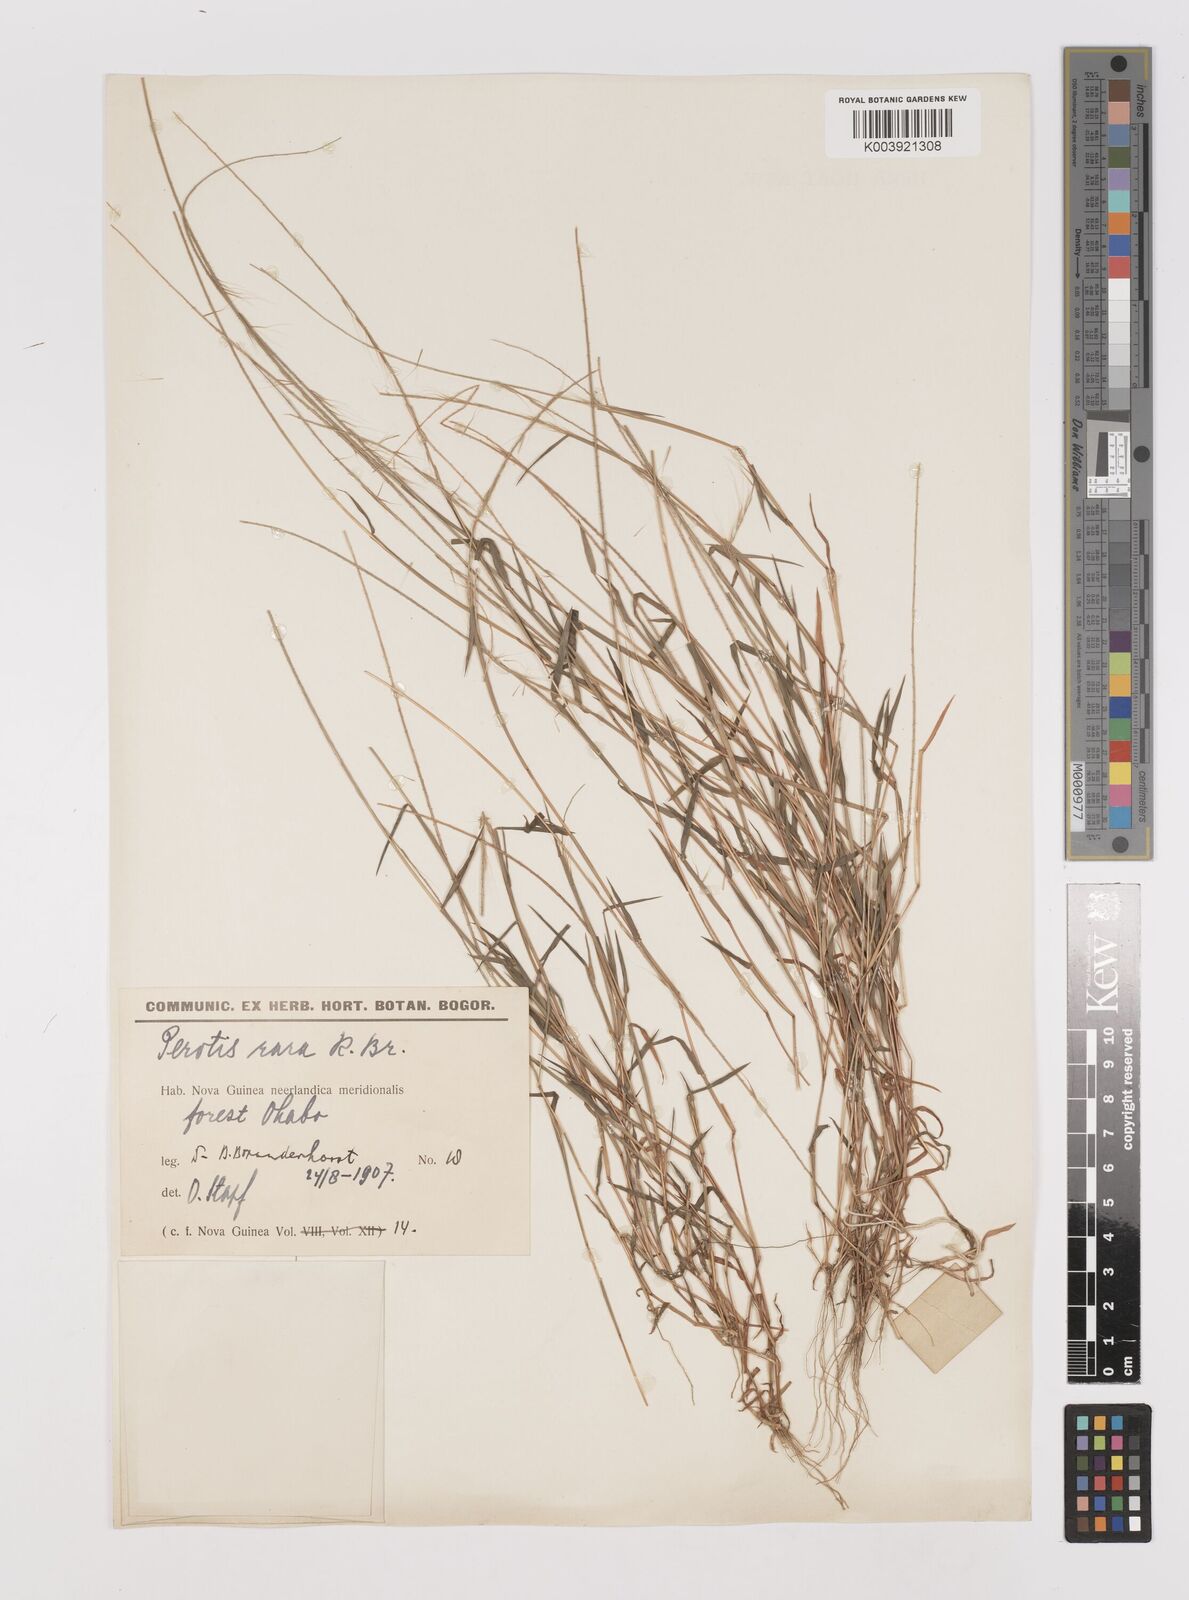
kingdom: Plantae
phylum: Tracheophyta
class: Liliopsida
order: Poales
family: Poaceae
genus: Perotis
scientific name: Perotis rara
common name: Comet grass
